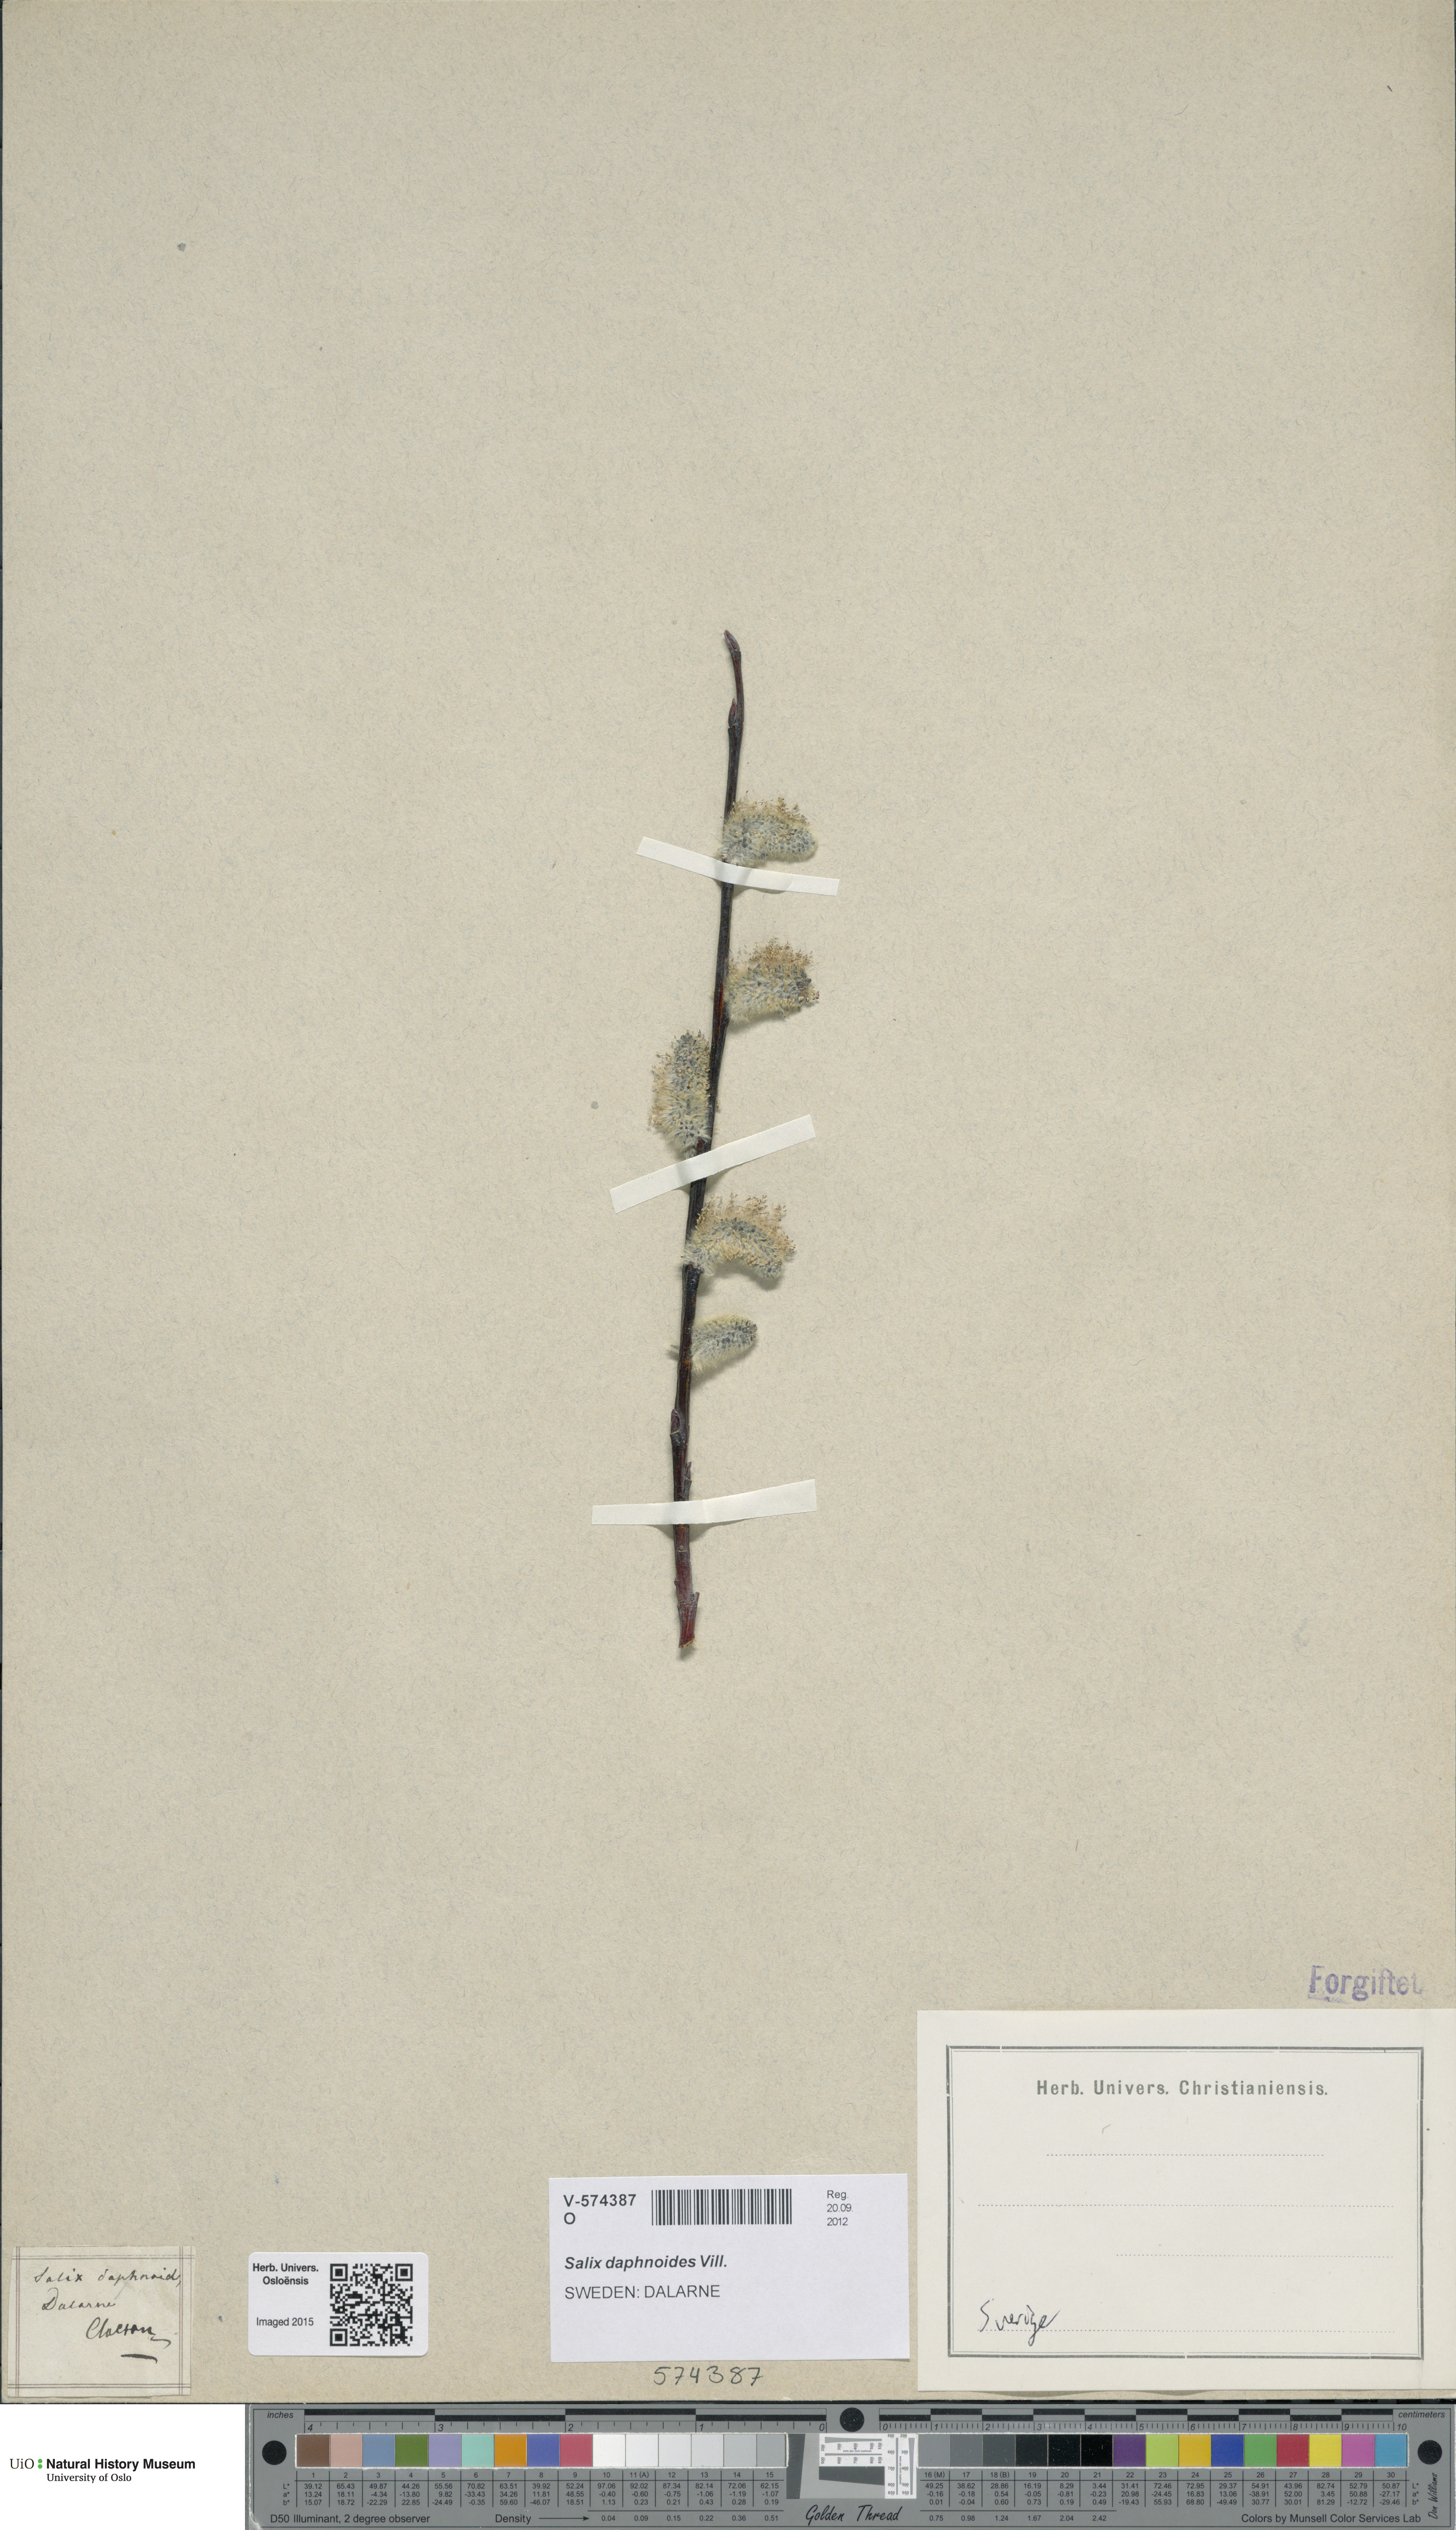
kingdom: Plantae
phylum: Tracheophyta
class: Magnoliopsida
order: Malpighiales
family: Salicaceae
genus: Salix
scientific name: Salix daphnoides
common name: European violet-willow
